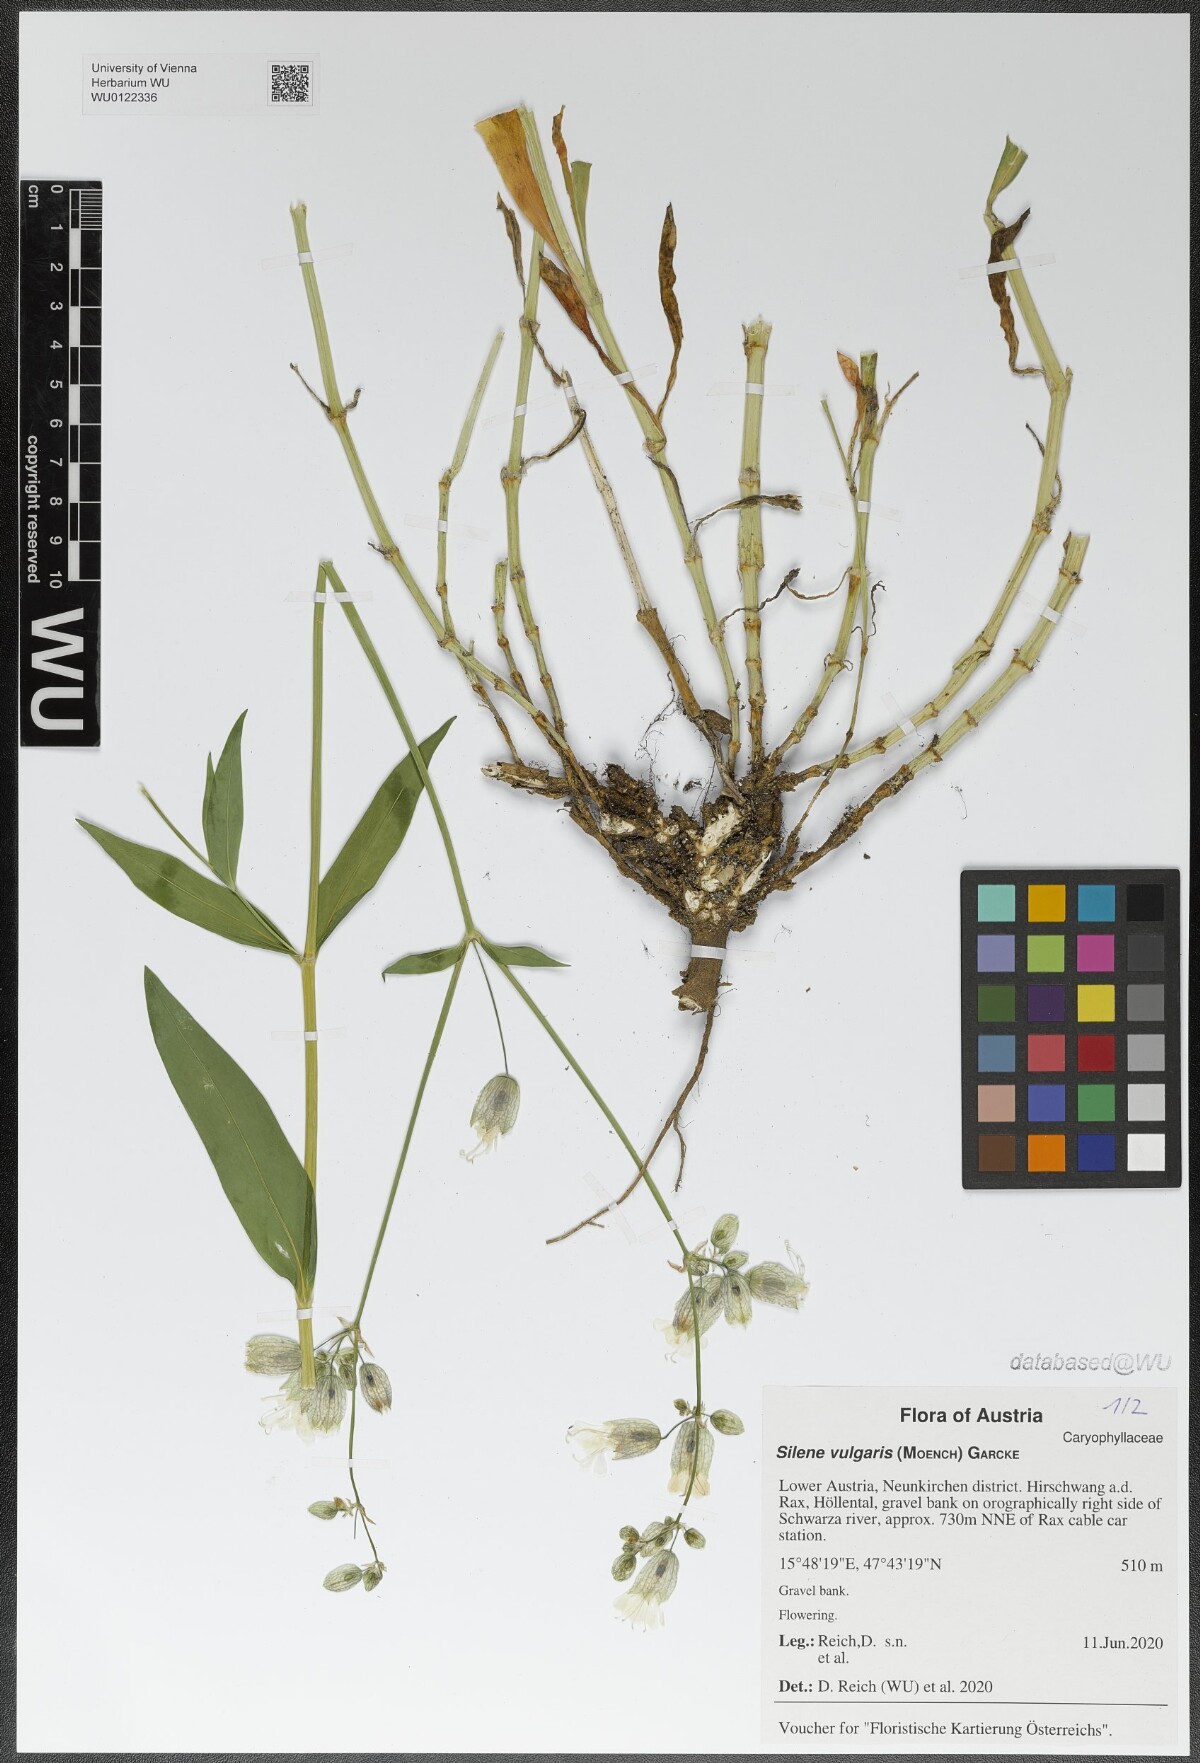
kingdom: Plantae
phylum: Tracheophyta
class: Magnoliopsida
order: Caryophyllales
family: Caryophyllaceae
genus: Silene
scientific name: Silene vulgaris
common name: Bladder campion
